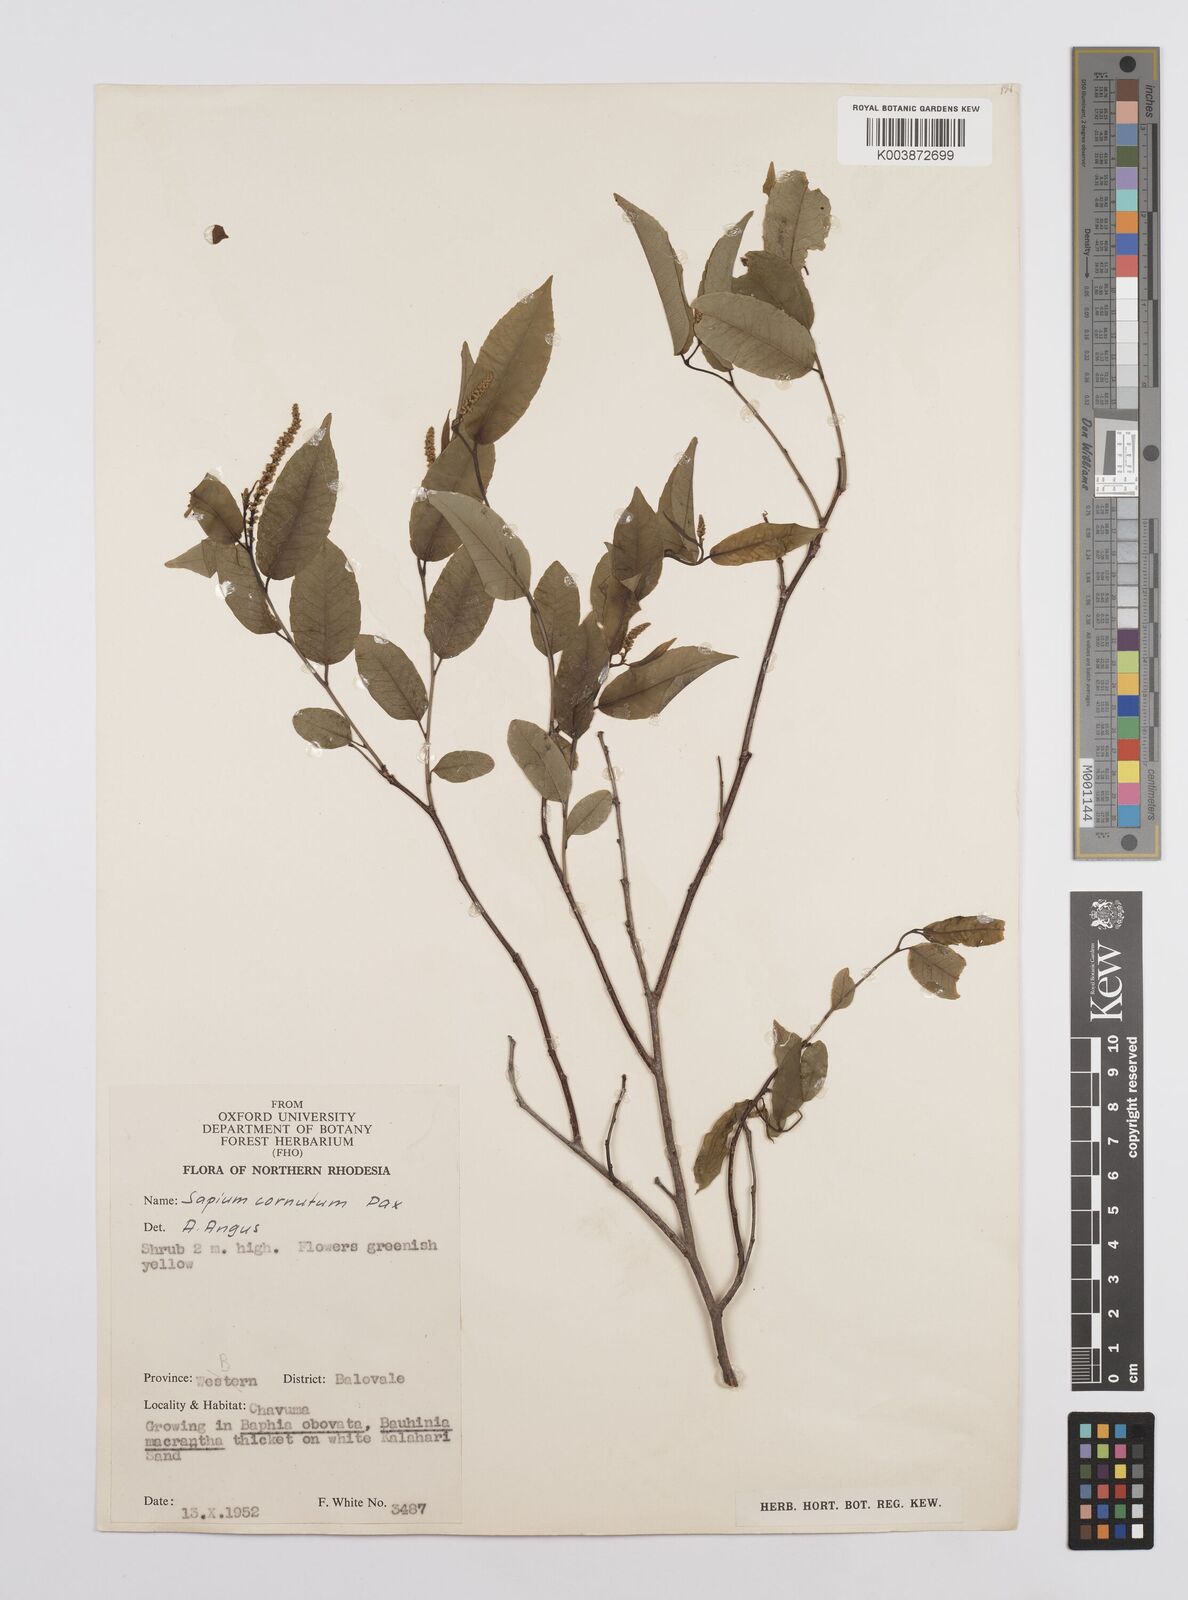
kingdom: Plantae
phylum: Tracheophyta
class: Magnoliopsida
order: Malpighiales
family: Euphorbiaceae
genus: Sclerocroton
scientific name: Sclerocroton cornutus
